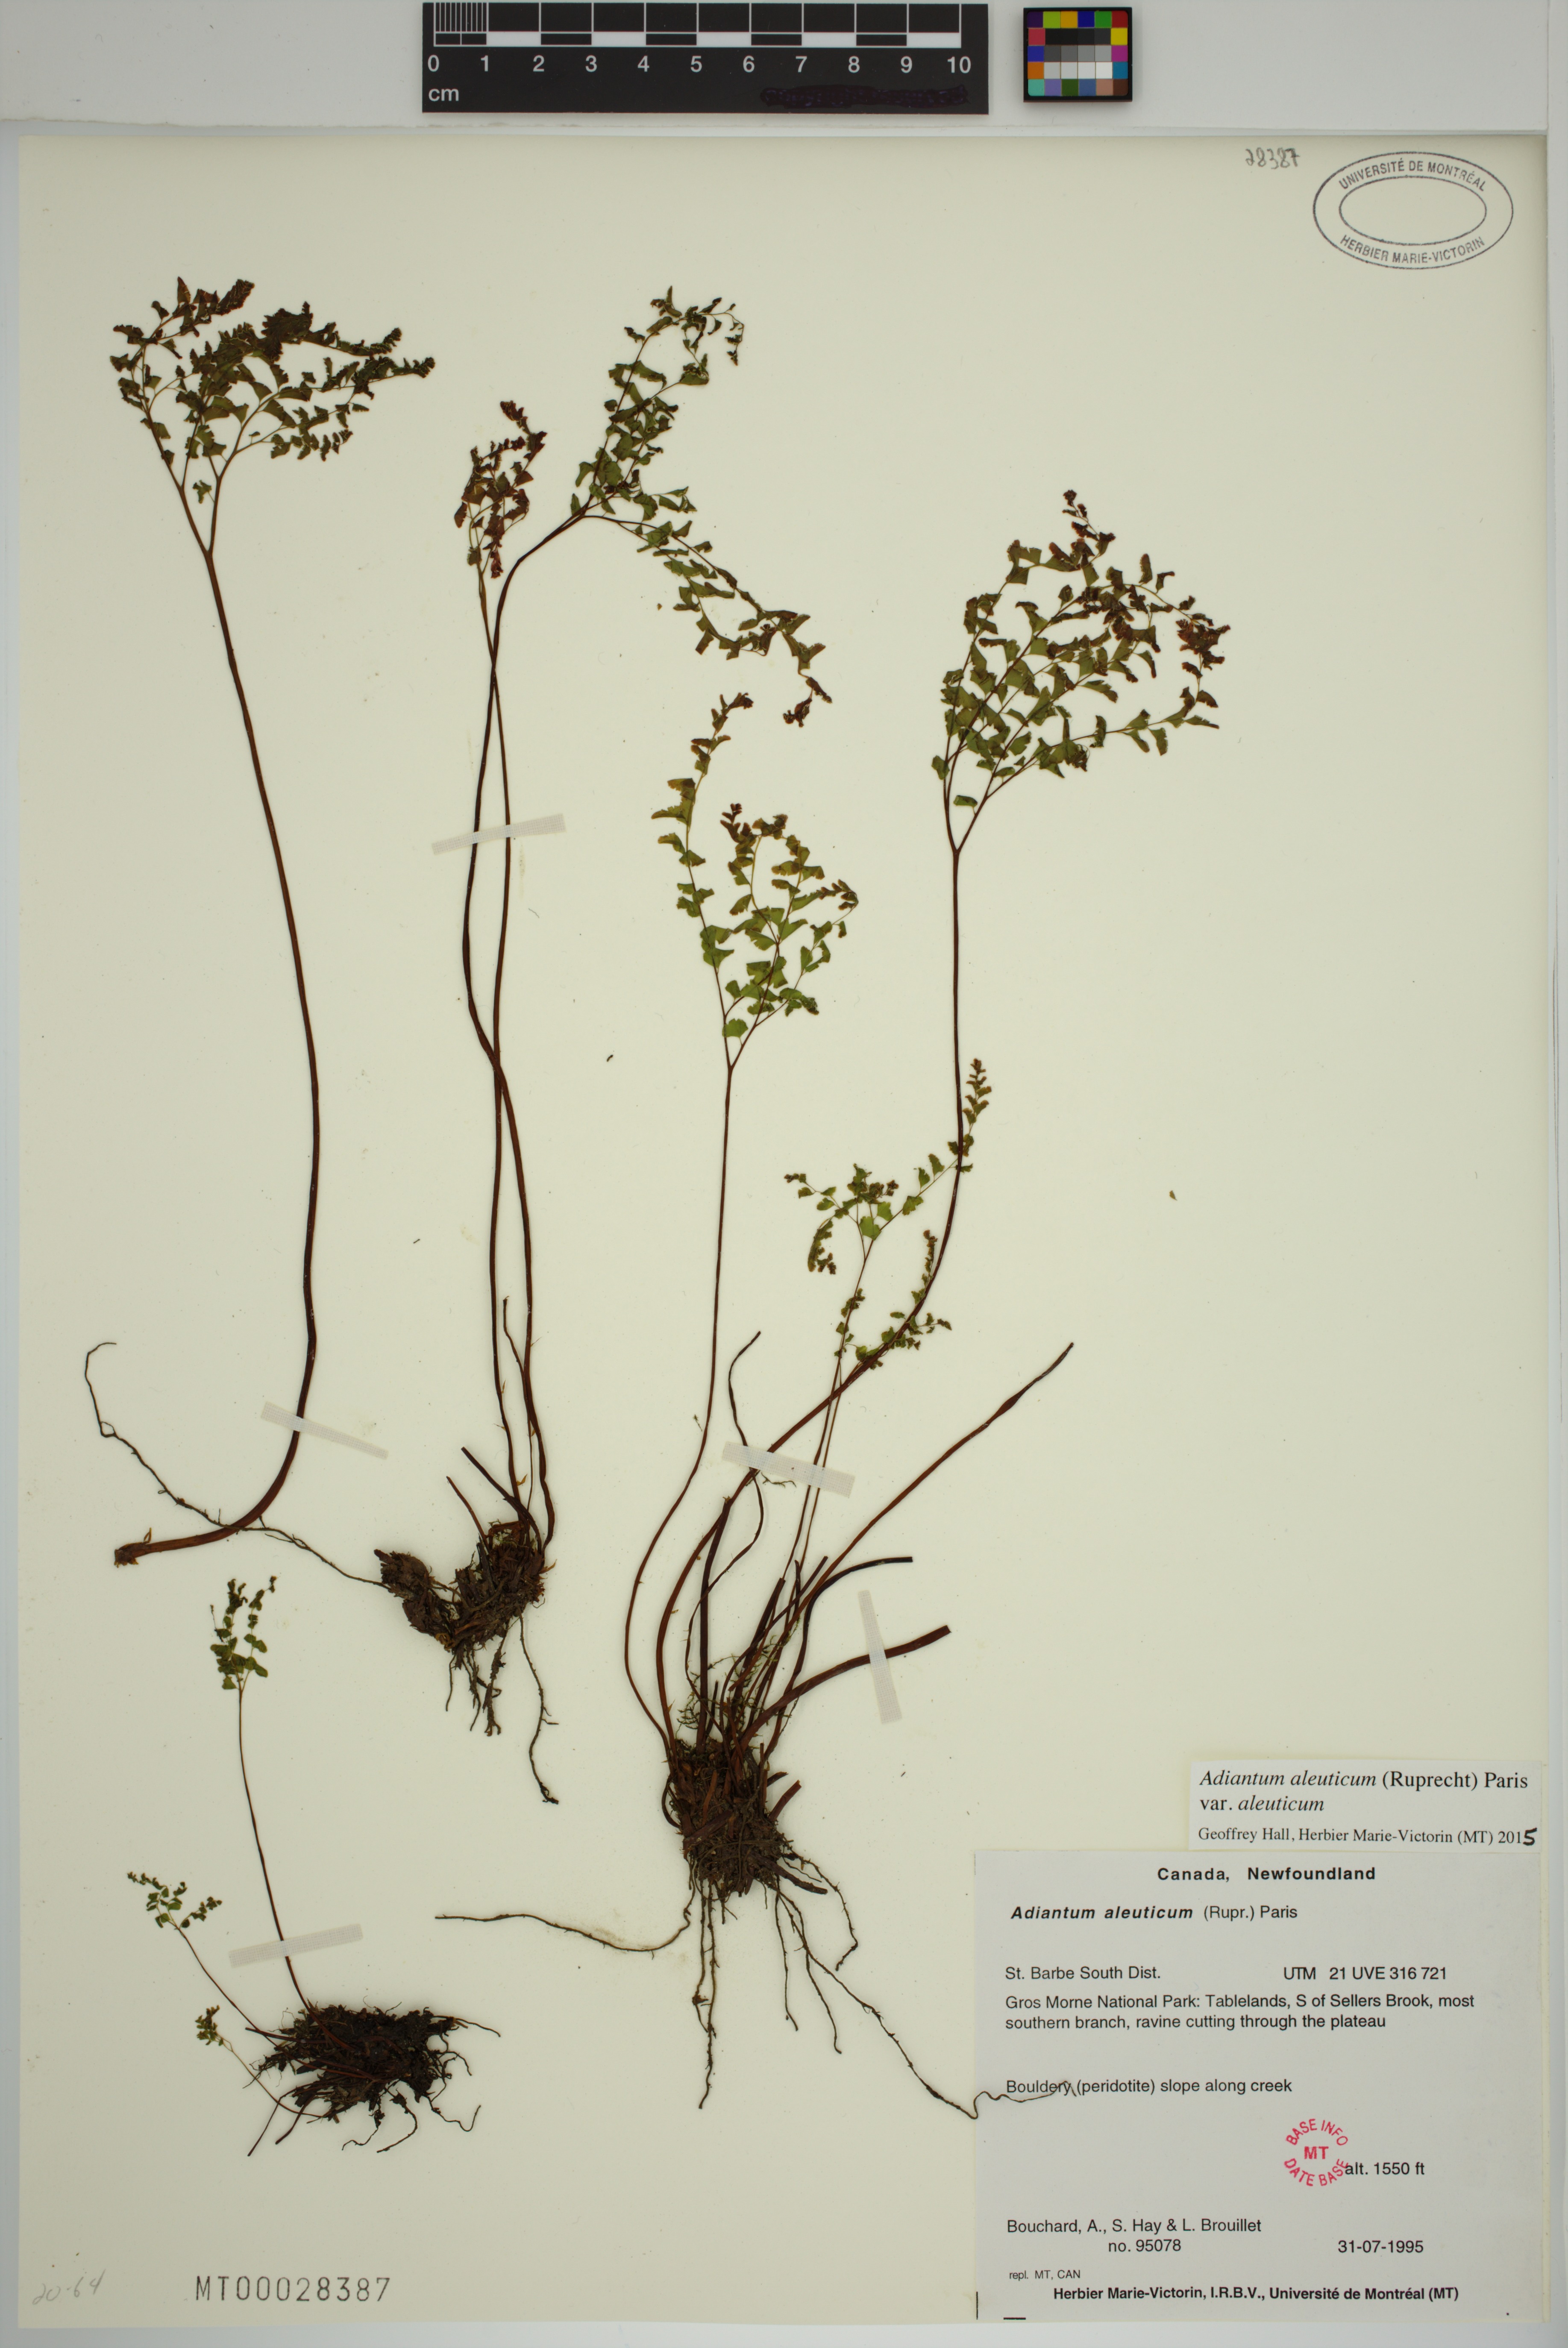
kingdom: Plantae
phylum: Tracheophyta
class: Polypodiopsida
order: Polypodiales
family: Pteridaceae
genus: Adiantum
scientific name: Adiantum aleuticum
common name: Aleutian maidenhair fern
